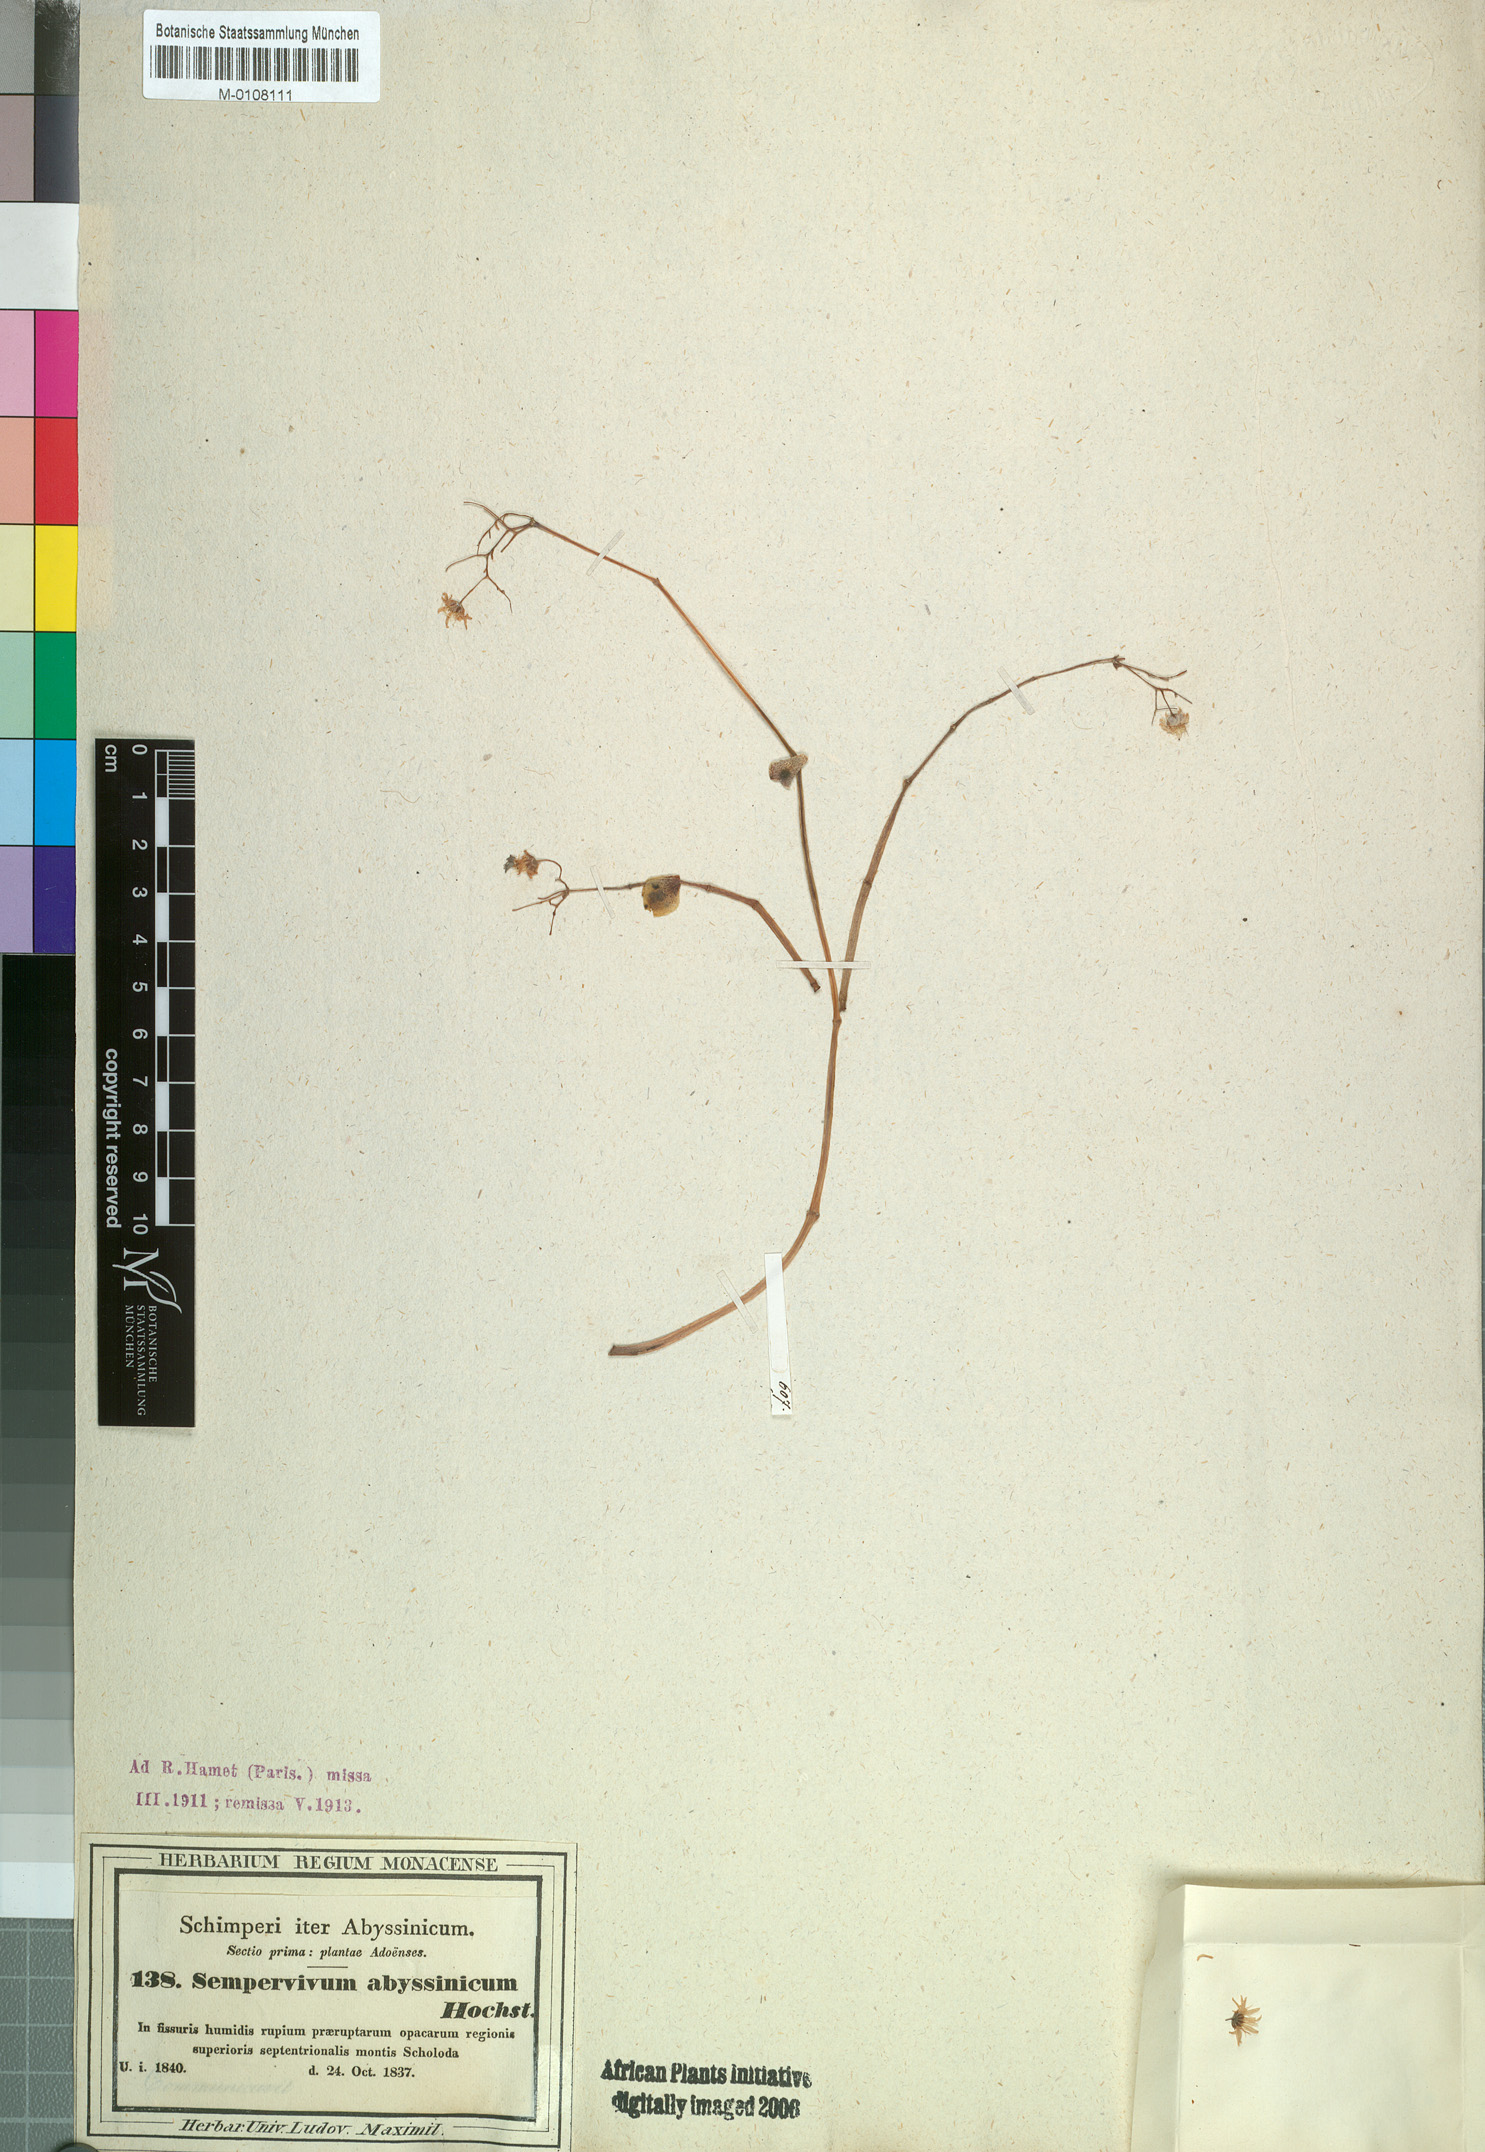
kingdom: Plantae
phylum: Tracheophyta
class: Magnoliopsida
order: Saxifragales
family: Crassulaceae
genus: Hypagophytum
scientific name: Hypagophytum abyssinicum
